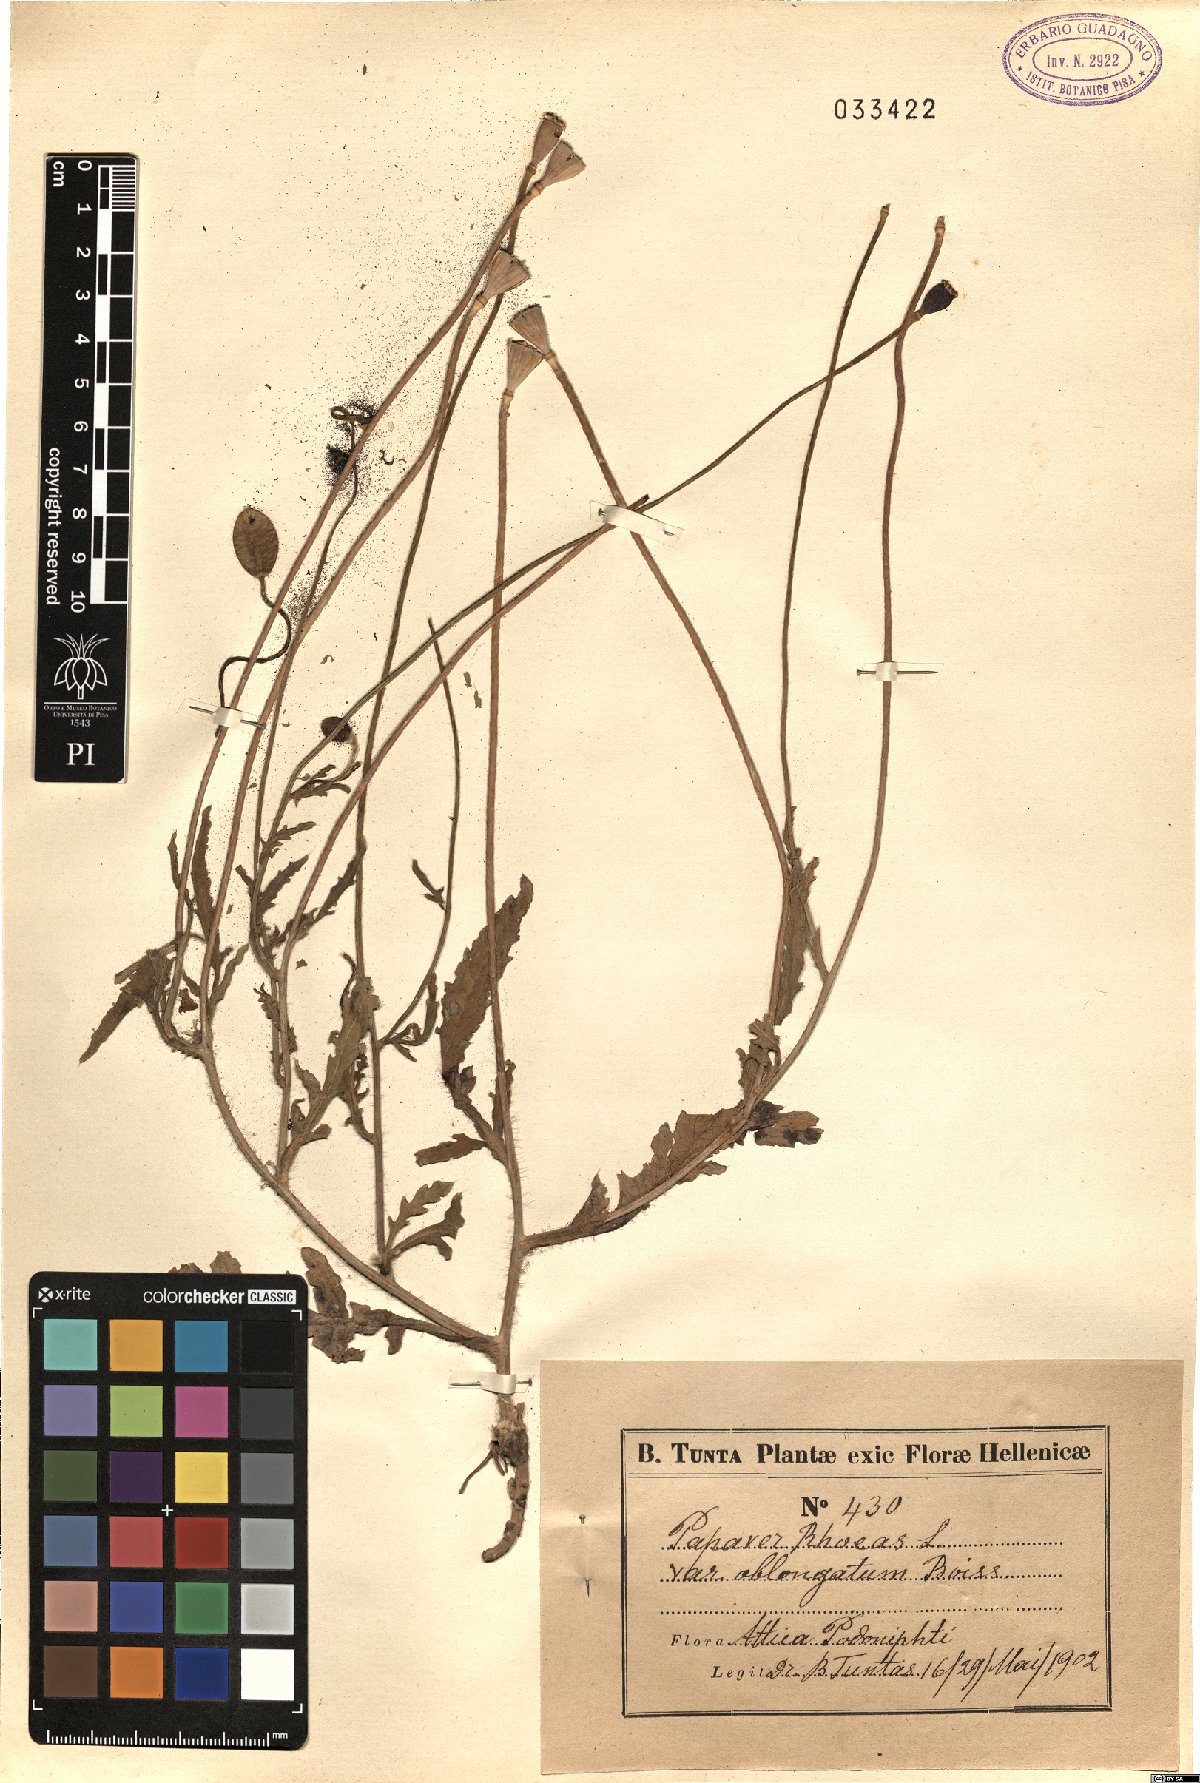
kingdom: Plantae
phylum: Tracheophyta
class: Magnoliopsida
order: Ranunculales
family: Papaveraceae
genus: Papaver
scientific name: Papaver umbonatum
